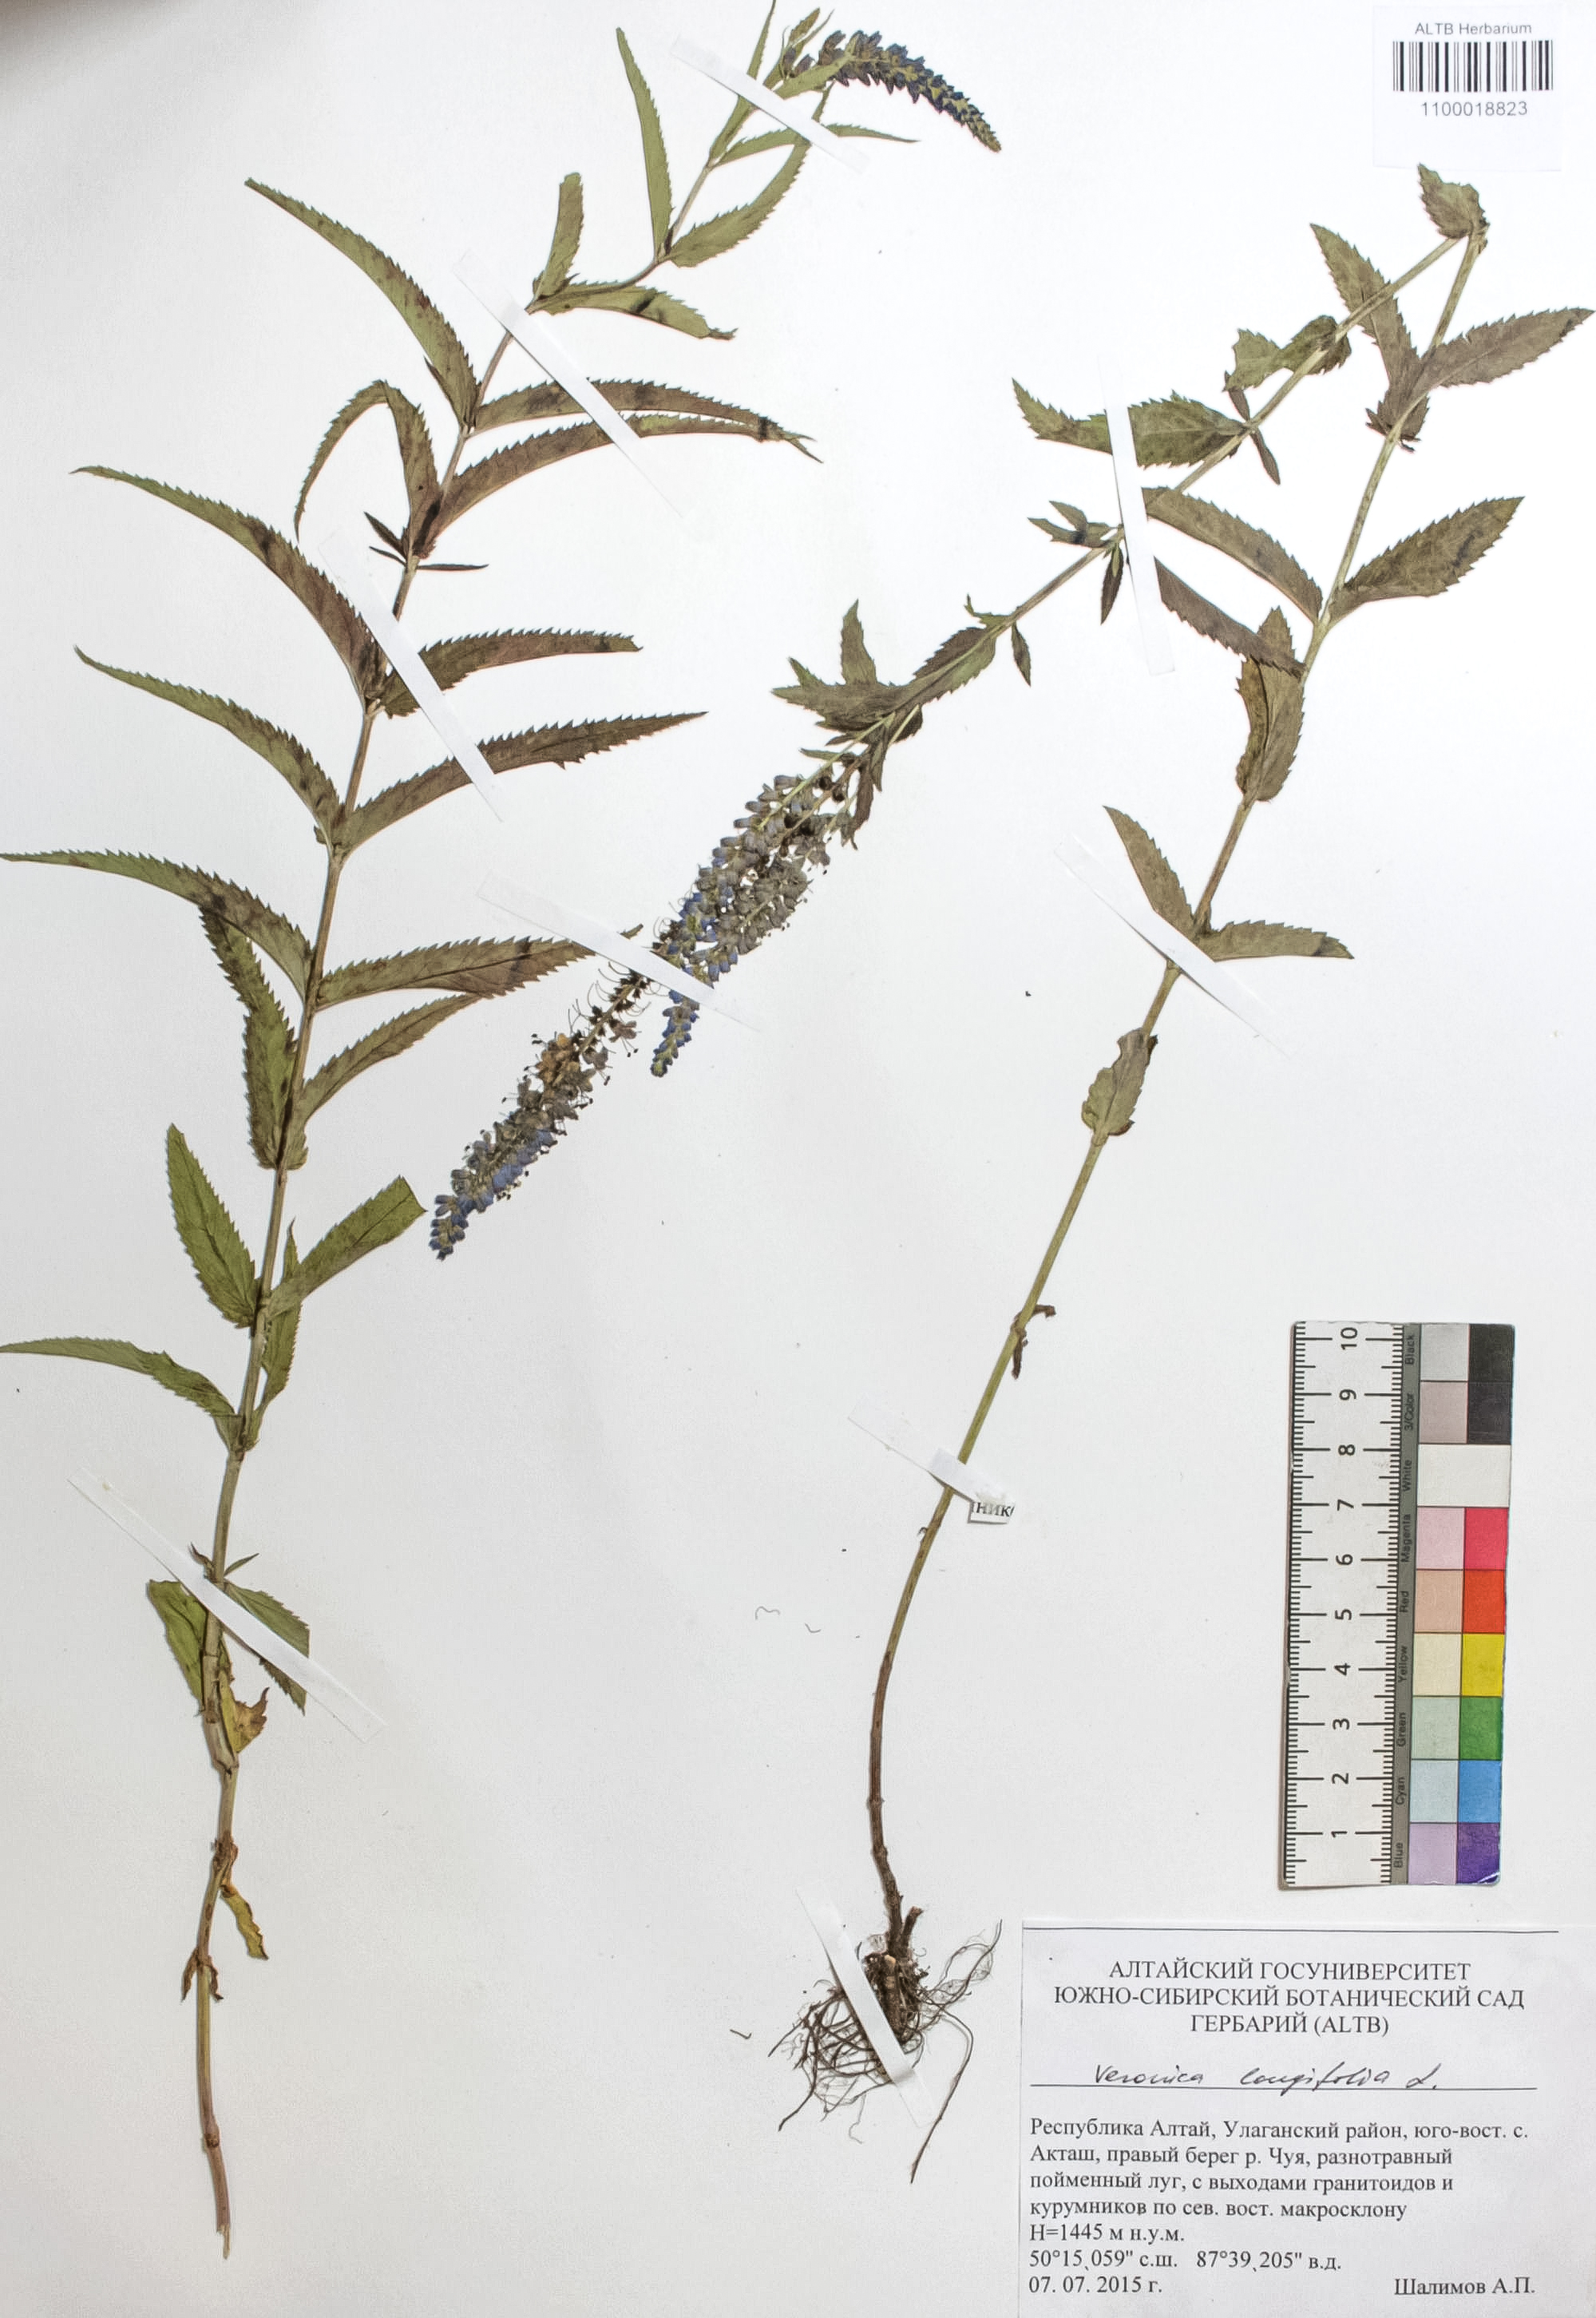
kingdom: Plantae
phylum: Tracheophyta
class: Magnoliopsida
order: Lamiales
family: Plantaginaceae
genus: Veronica
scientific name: Veronica longifolia
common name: Garden speedwell
